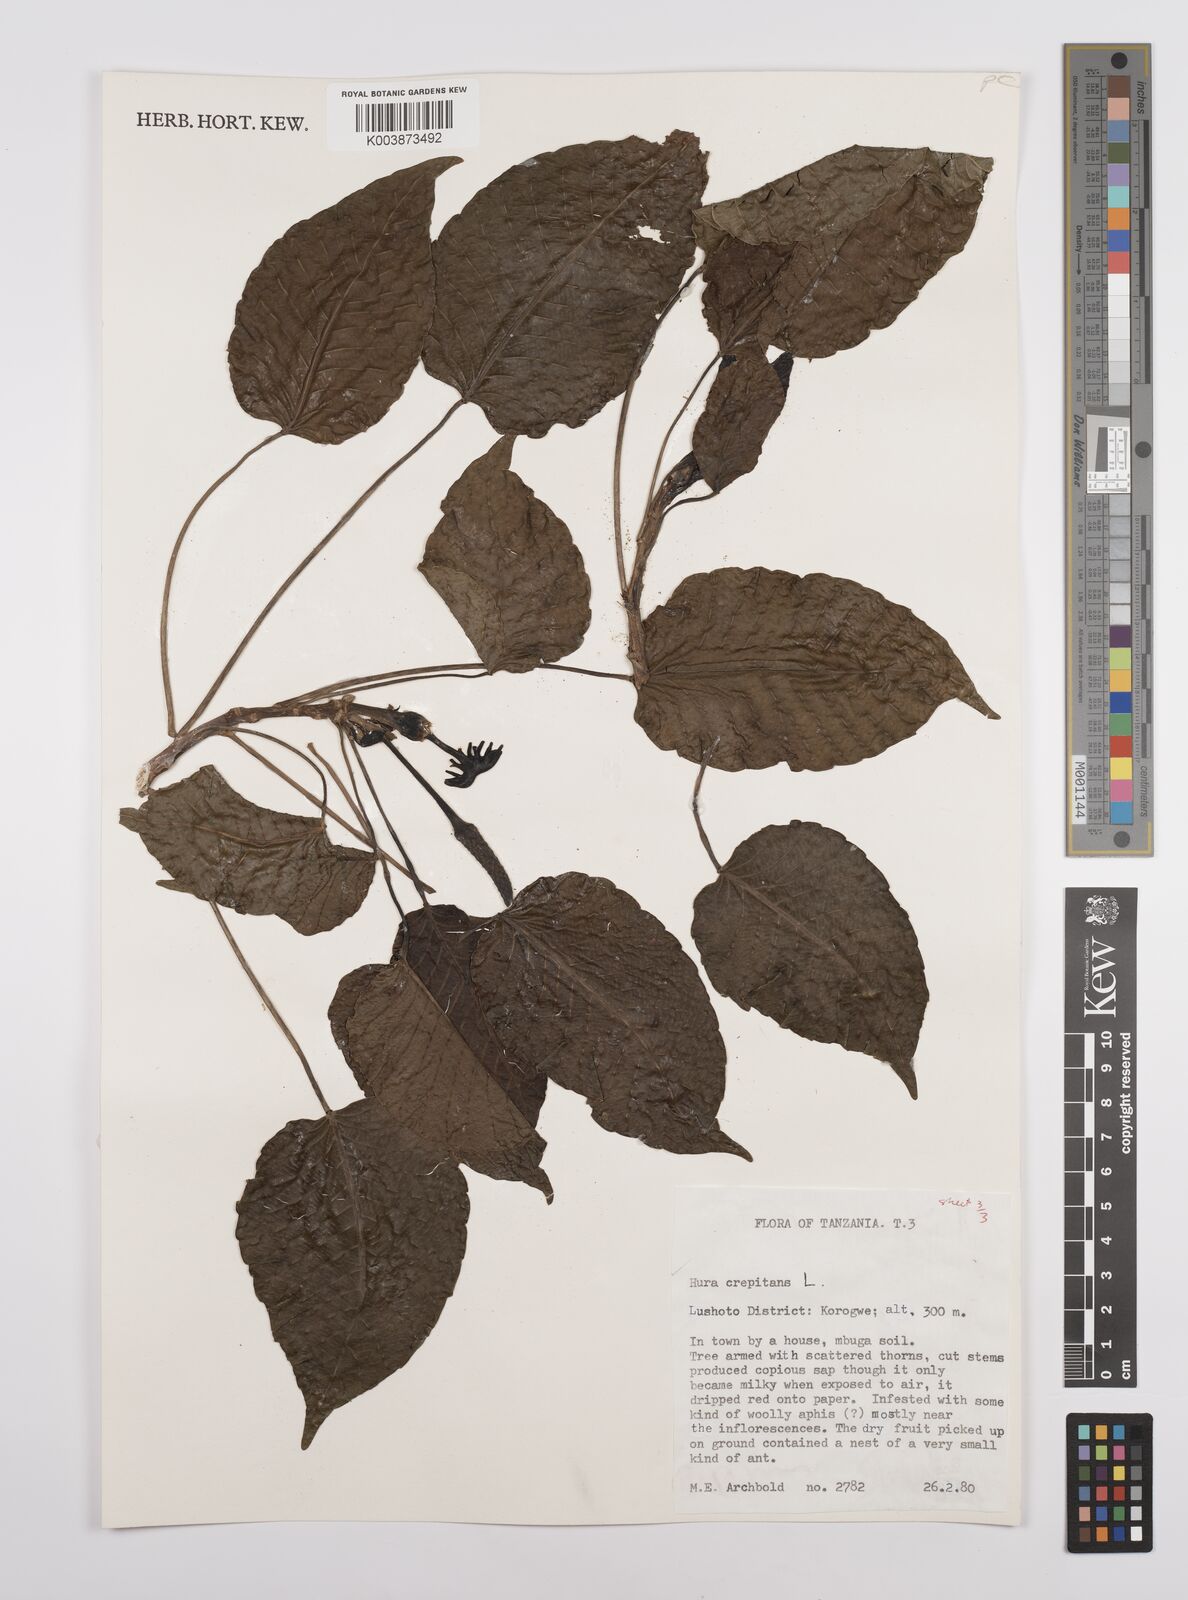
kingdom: Plantae
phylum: Tracheophyta
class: Magnoliopsida
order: Malpighiales
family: Euphorbiaceae
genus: Hura
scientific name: Hura crepitans
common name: Sandboxtree
